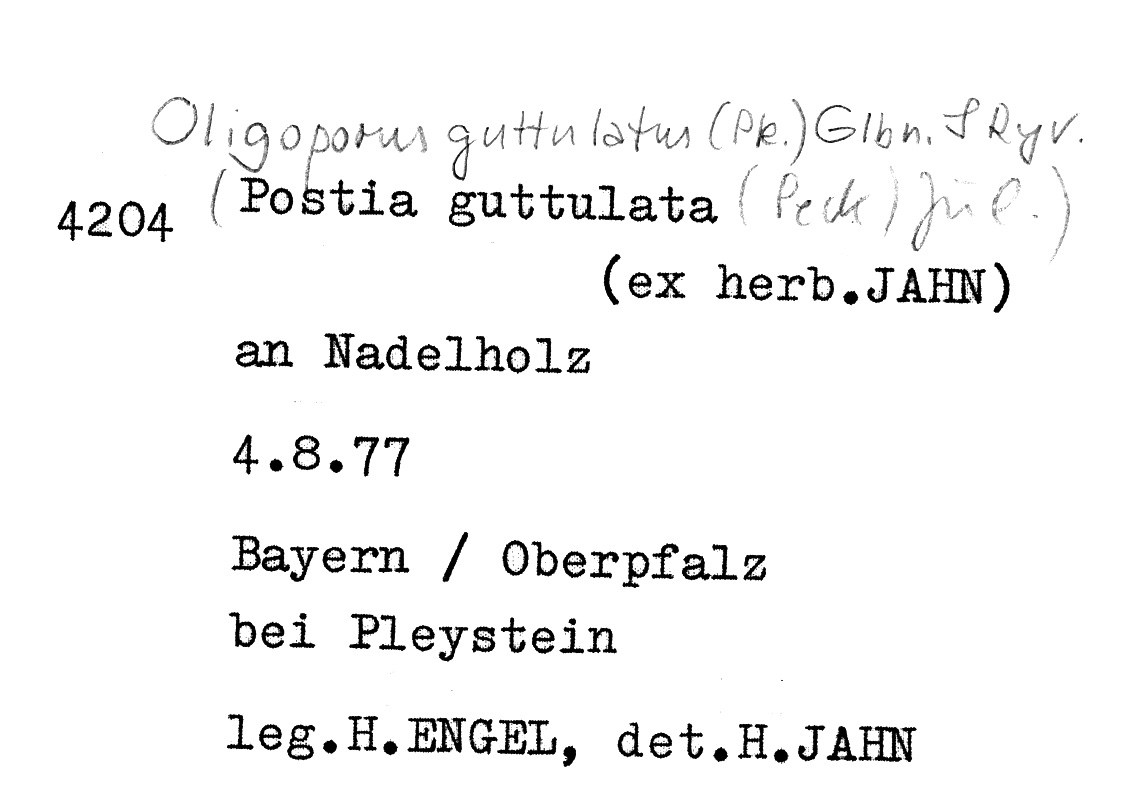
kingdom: Fungi
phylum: Basidiomycota
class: Agaricomycetes
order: Polyporales
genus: Calcipostia
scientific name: Calcipostia guttulata
